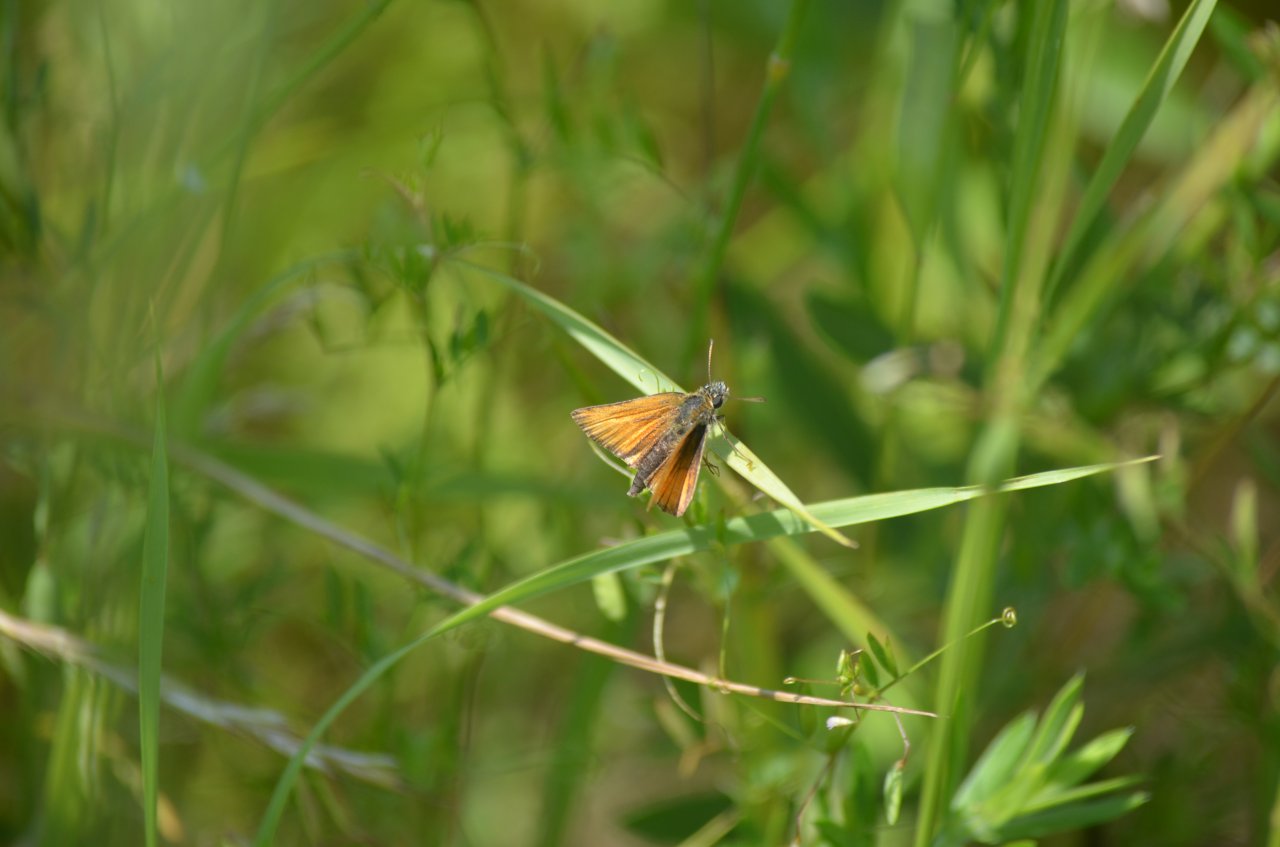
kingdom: Animalia
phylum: Arthropoda
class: Insecta
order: Lepidoptera
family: Hesperiidae
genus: Thymelicus
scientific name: Thymelicus lineola
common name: European Skipper
